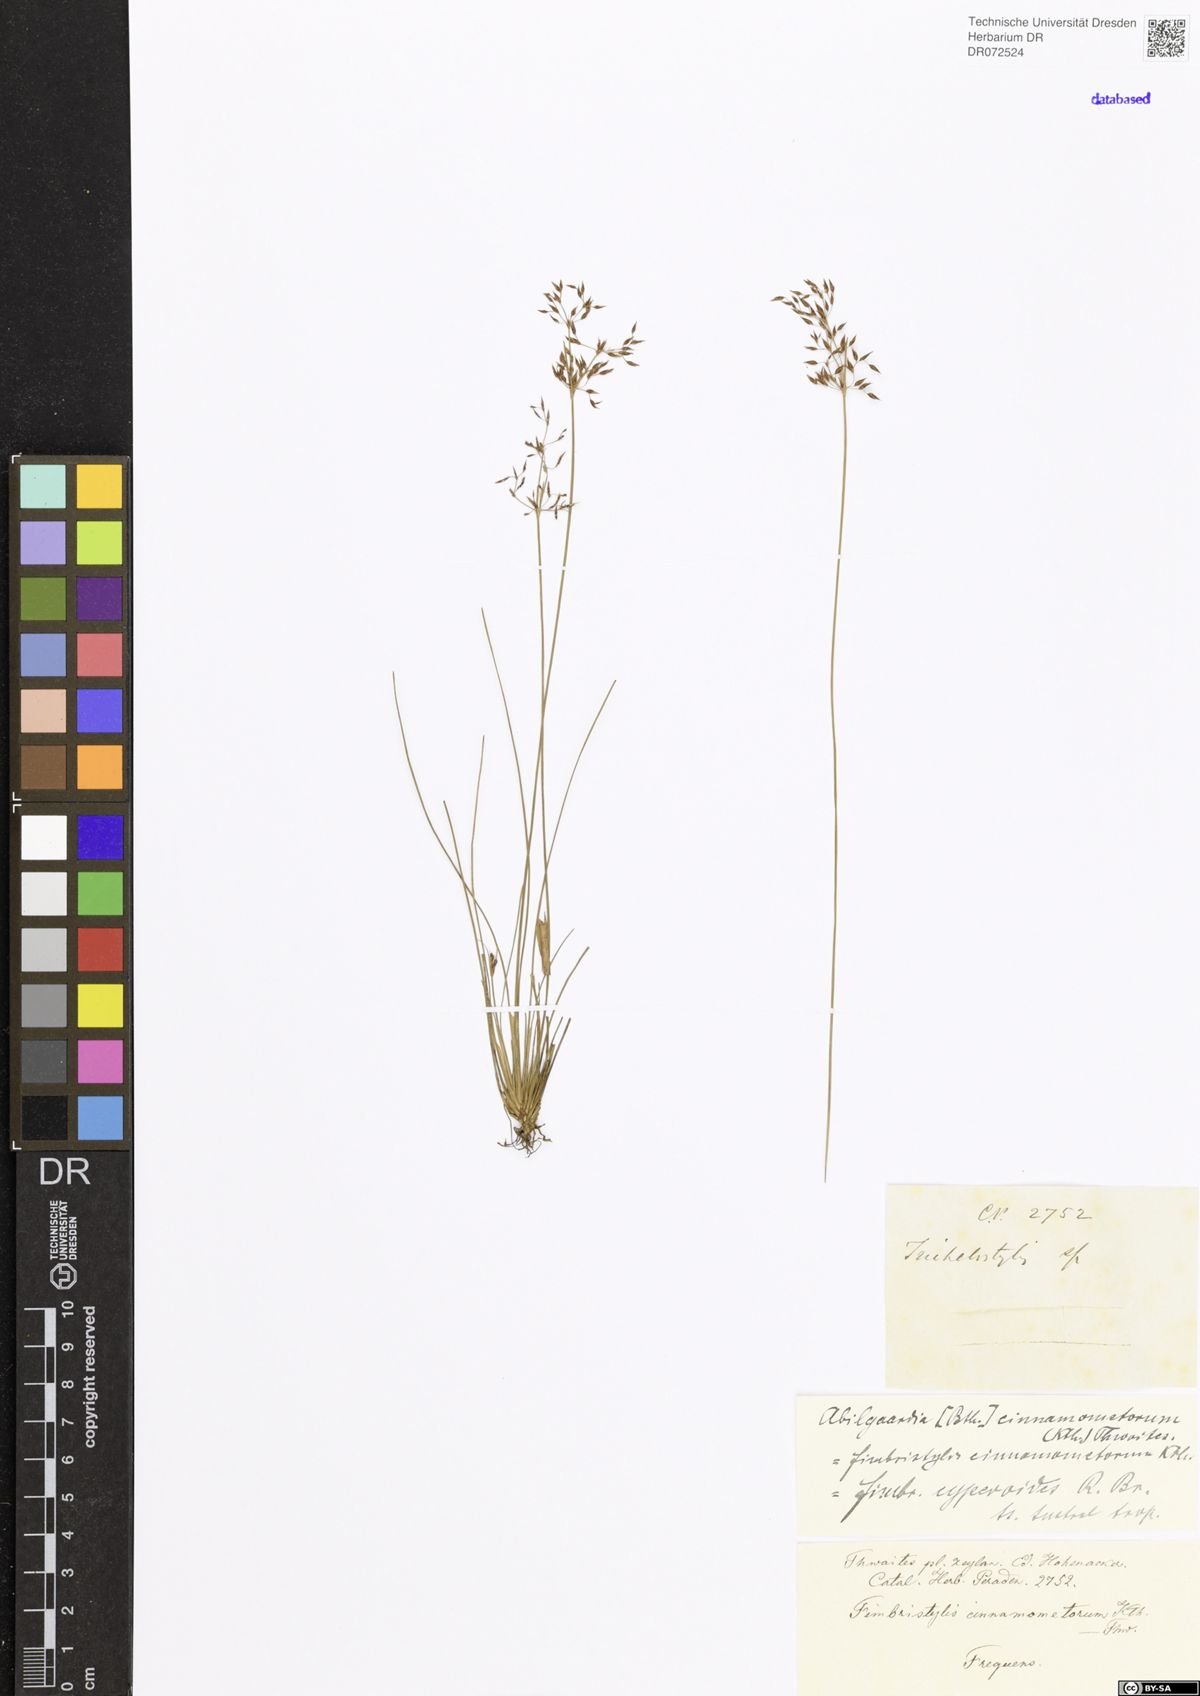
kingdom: Plantae
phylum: Tracheophyta
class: Liliopsida
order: Poales
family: Cyperaceae
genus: Fimbristylis
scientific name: Fimbristylis cinnamometorum
